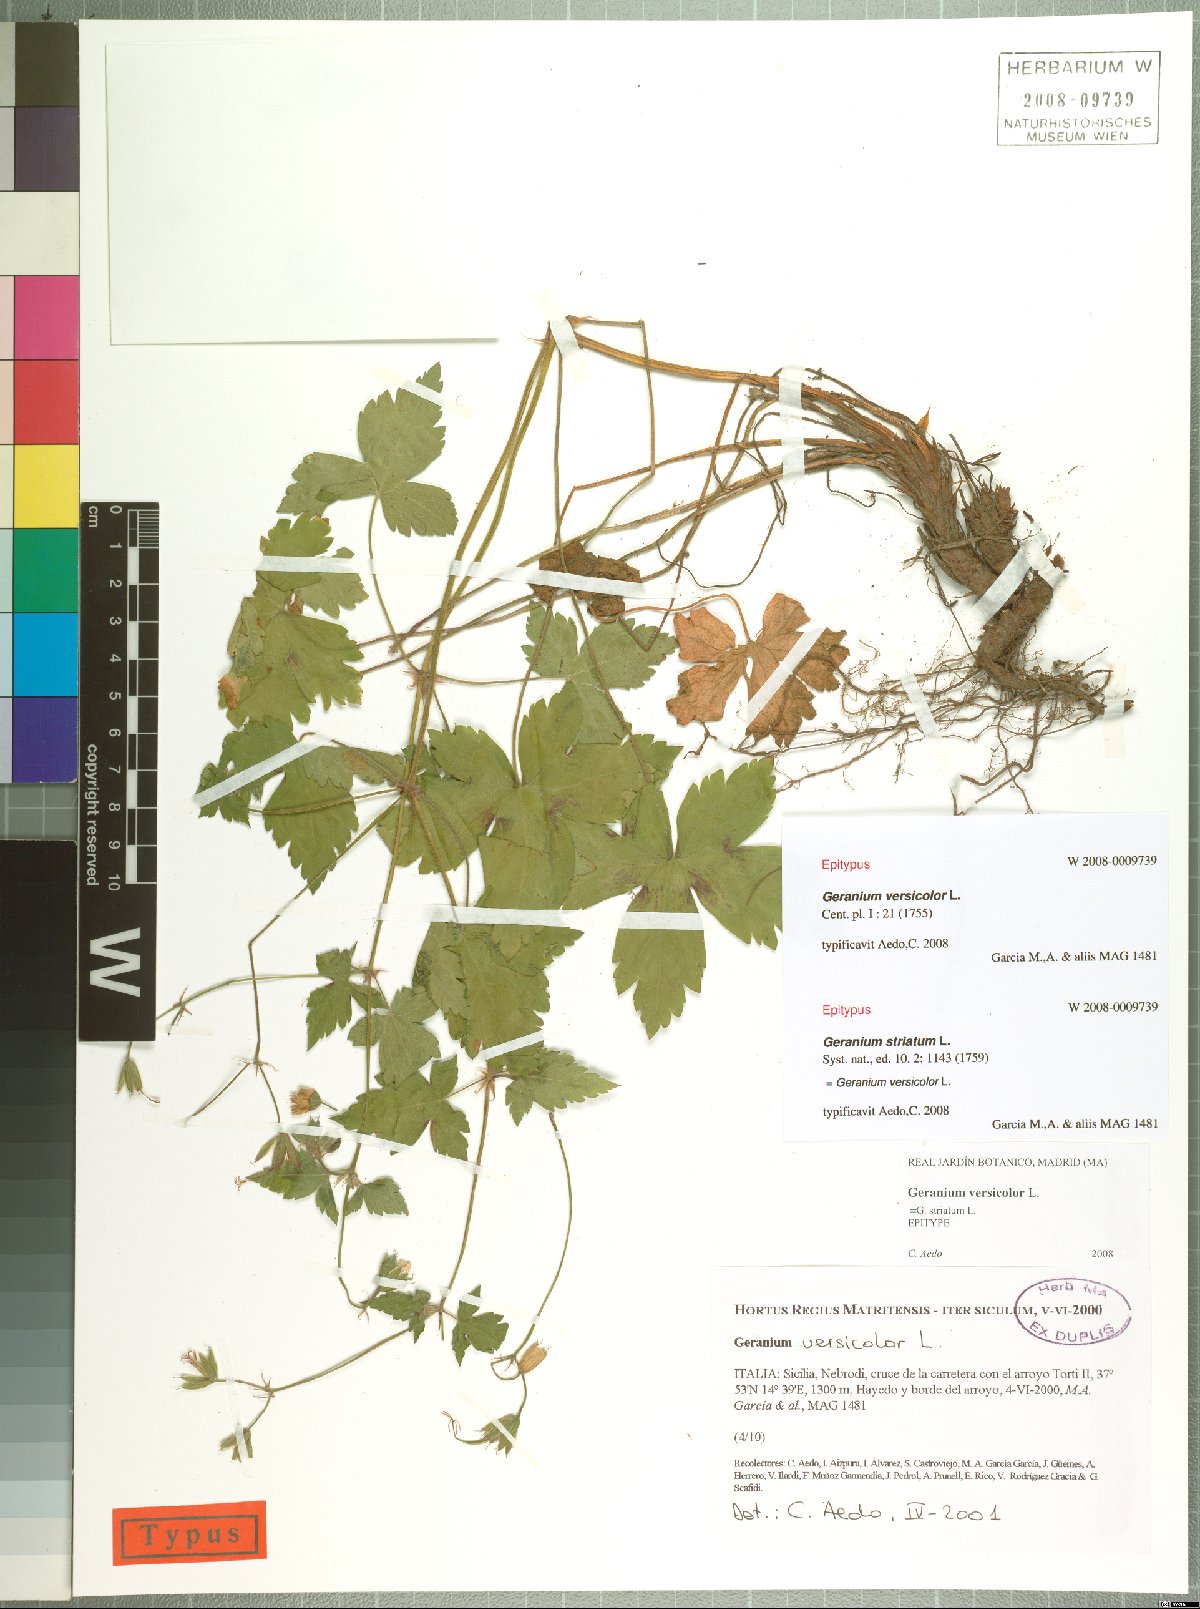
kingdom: Plantae
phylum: Tracheophyta
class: Magnoliopsida
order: Geraniales
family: Geraniaceae
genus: Geranium
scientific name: Geranium versicolor
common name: Pencilled crane's-bill
